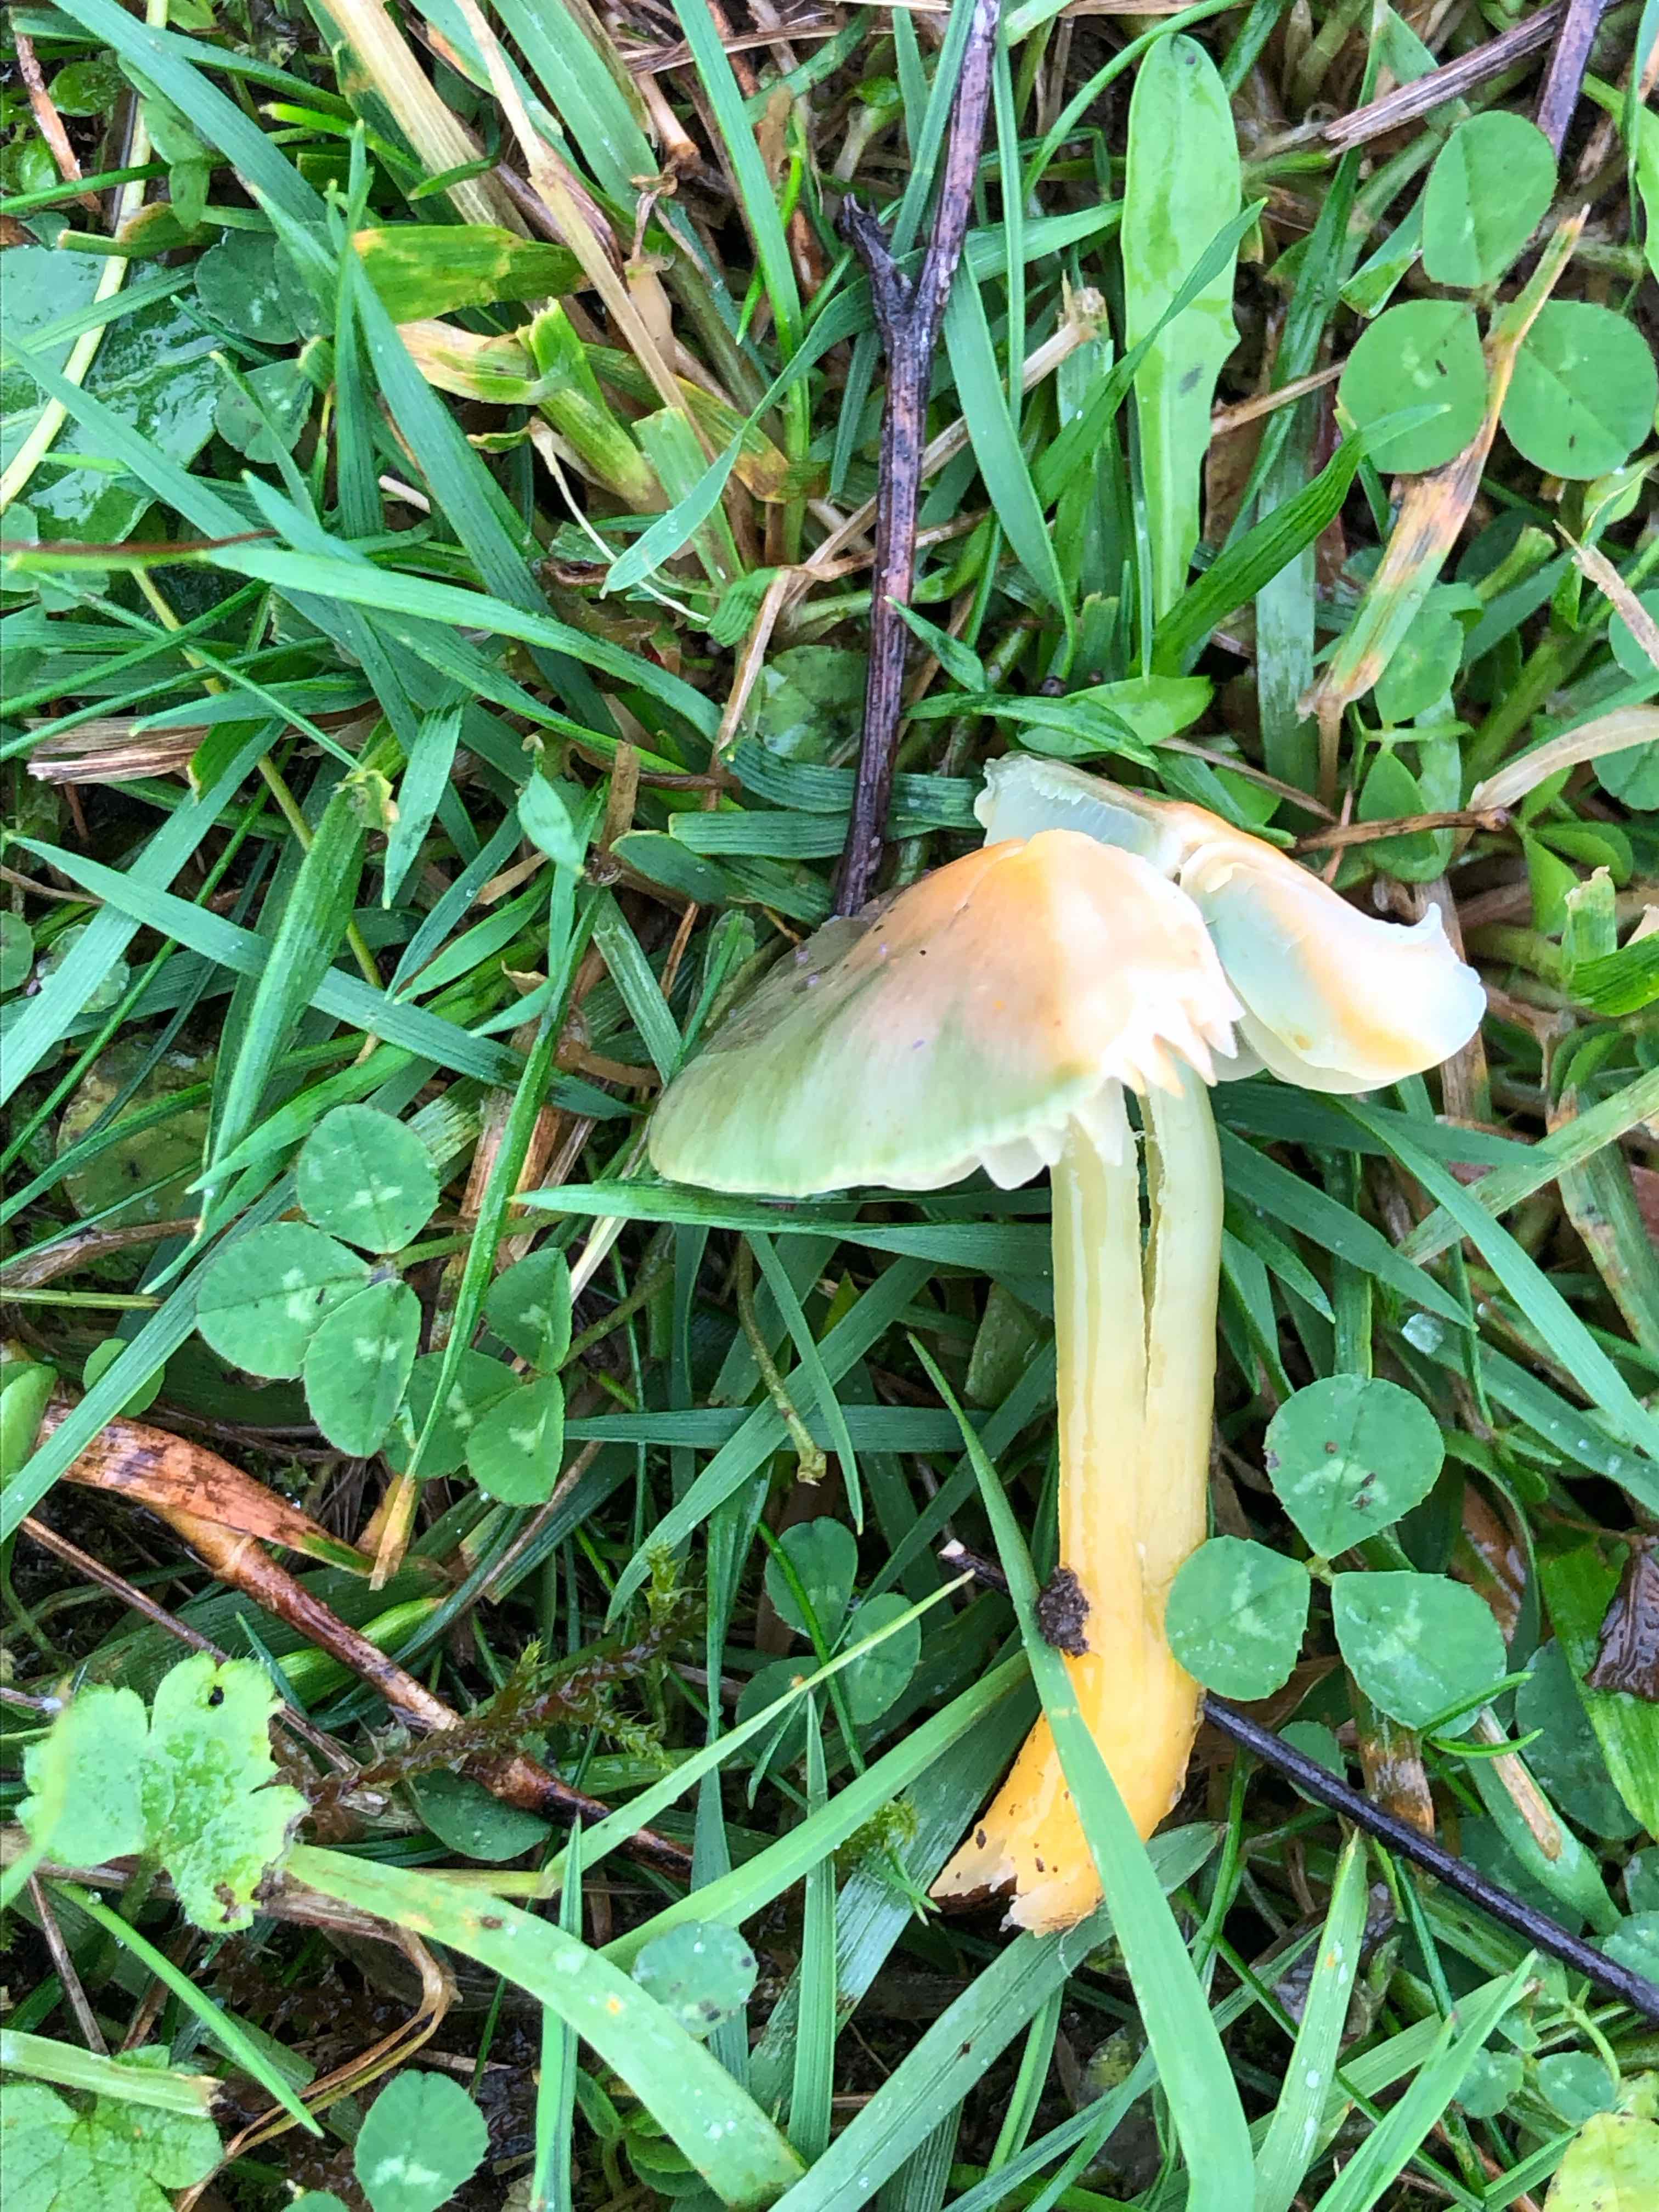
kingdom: Fungi
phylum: Basidiomycota
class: Agaricomycetes
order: Agaricales
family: Hygrophoraceae
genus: Gliophorus
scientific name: Gliophorus psittacinus
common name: papegøje-vokshat
